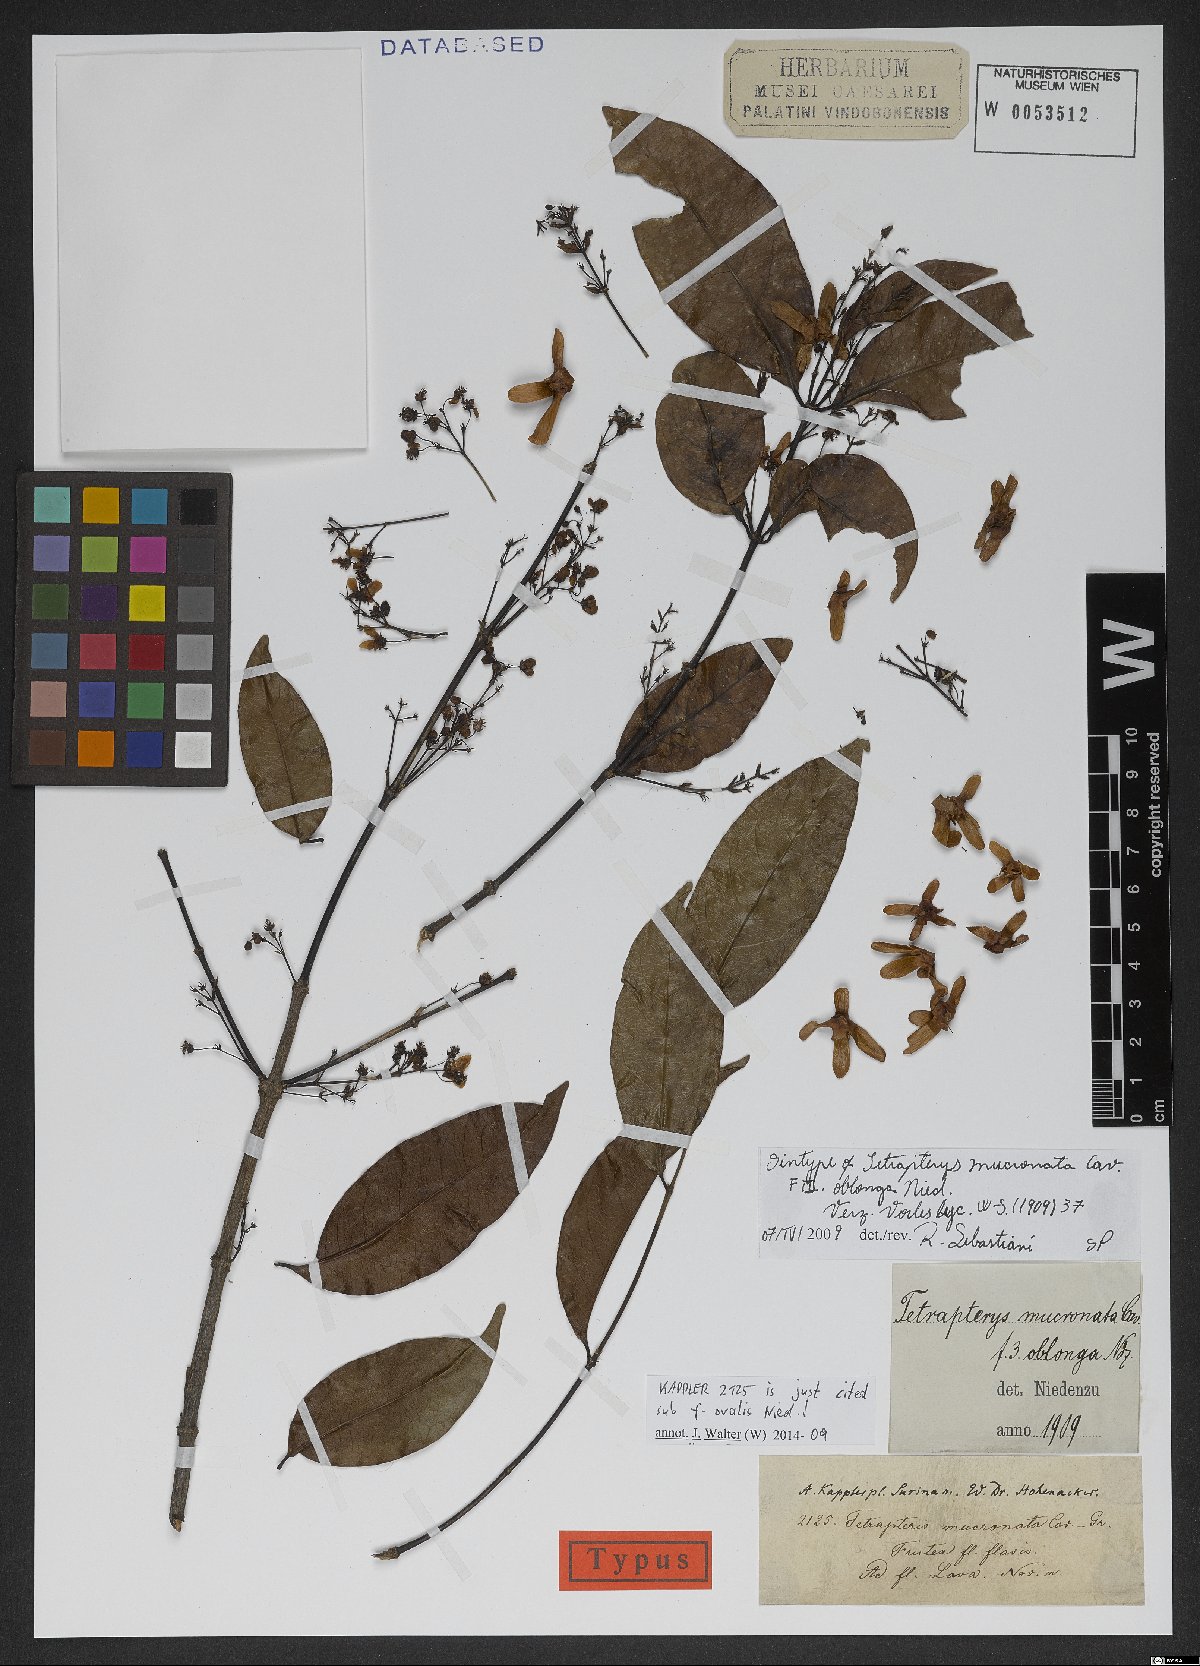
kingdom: Plantae
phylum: Tracheophyta
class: Magnoliopsida
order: Malpighiales
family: Malpighiaceae
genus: Tetrapterys
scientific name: Tetrapterys mucronata
